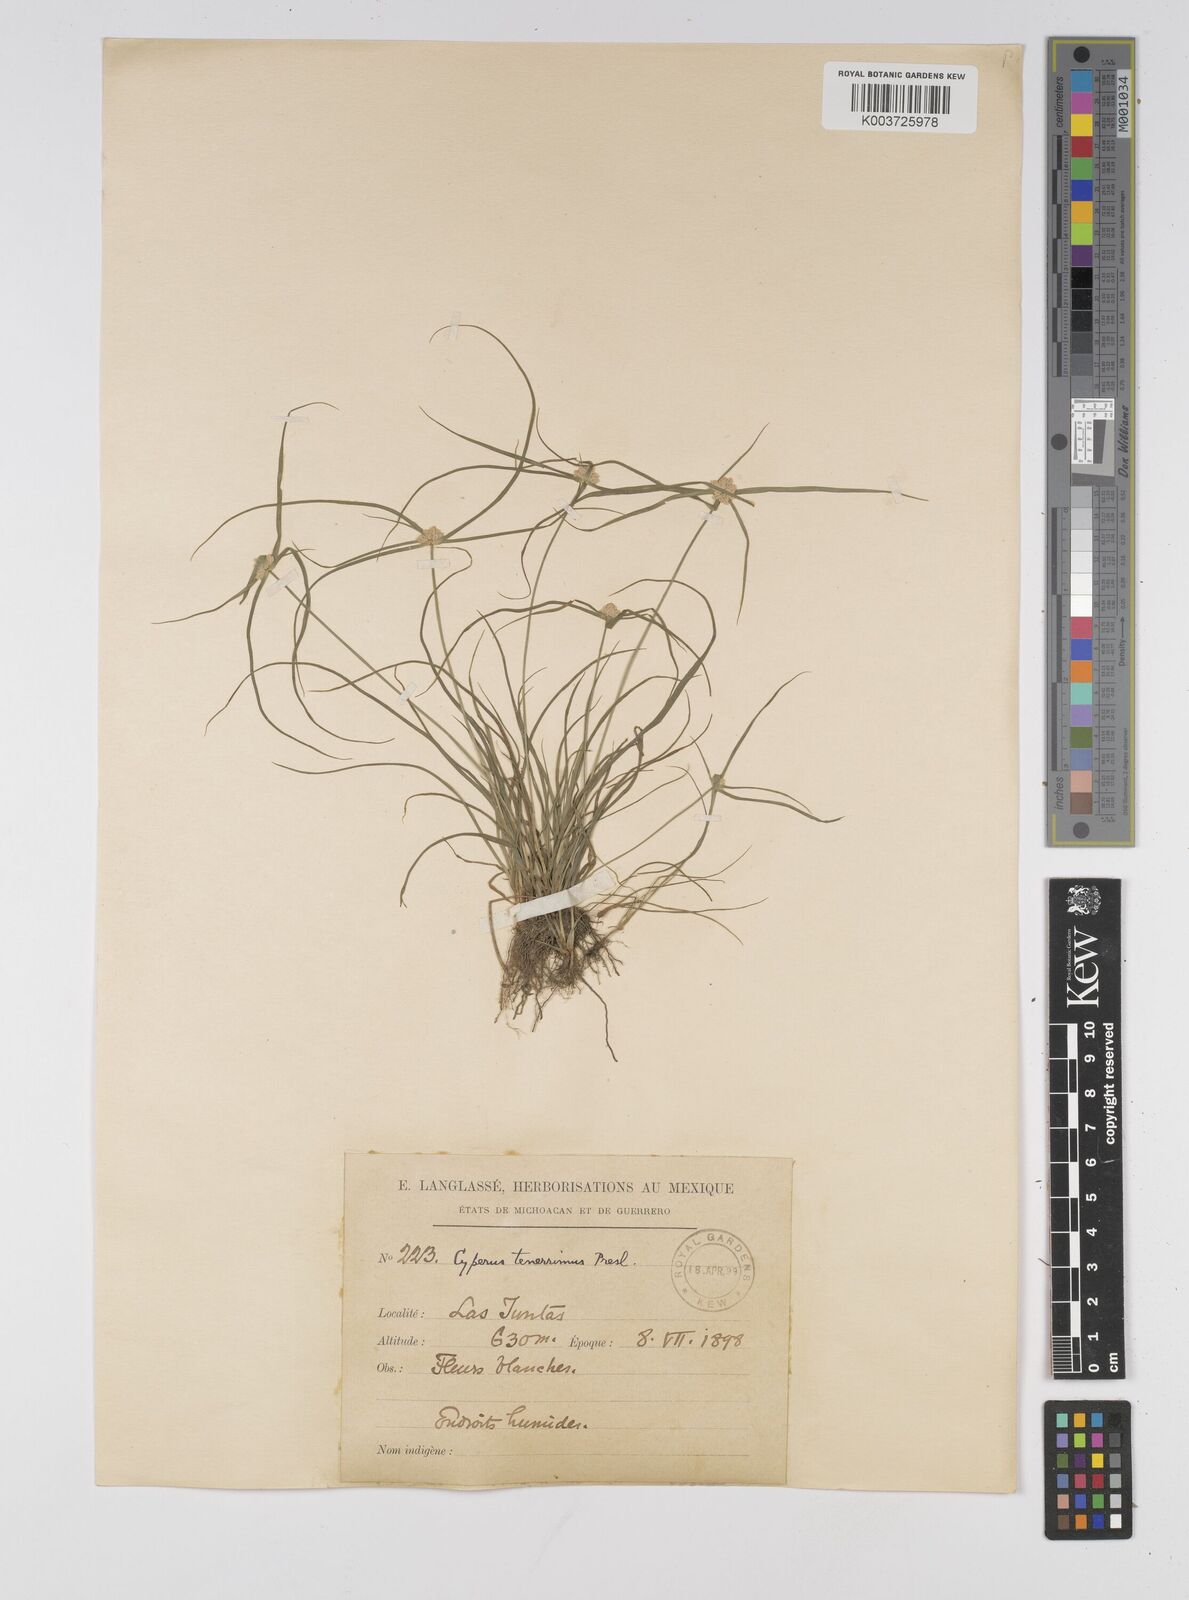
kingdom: Plantae
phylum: Tracheophyta
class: Liliopsida
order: Poales
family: Cyperaceae
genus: Cyperus
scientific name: Cyperus tenerrimus
